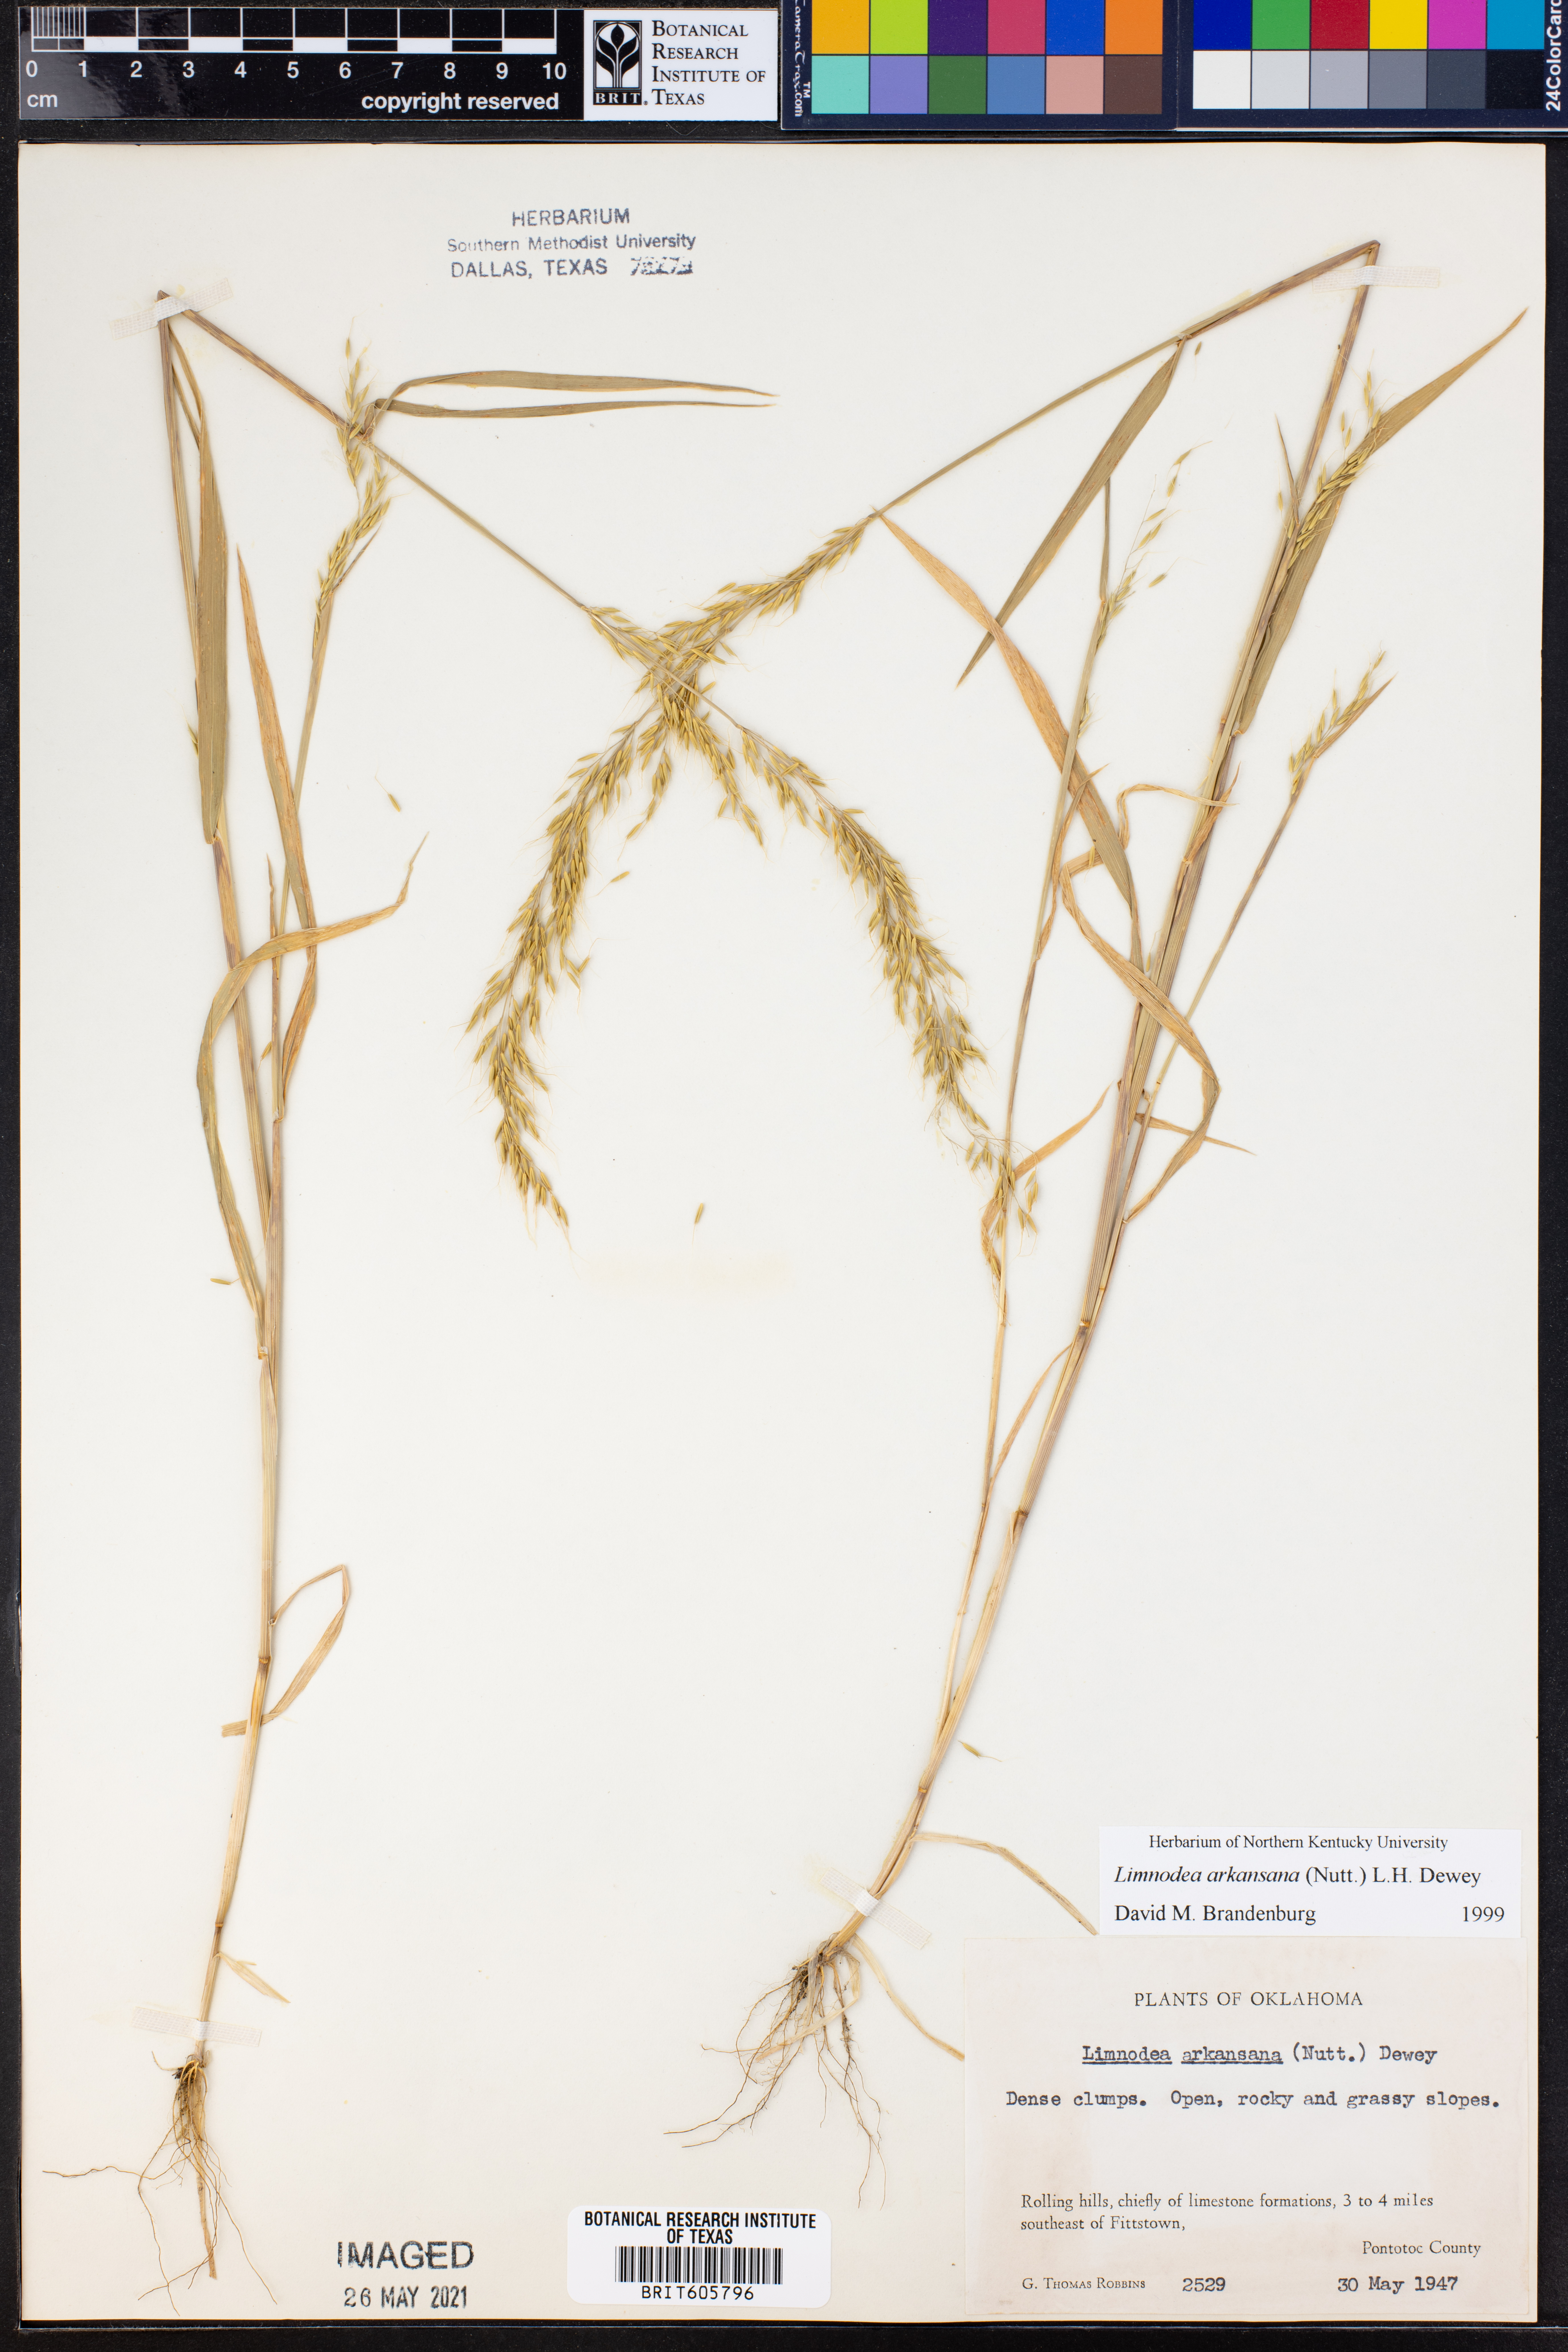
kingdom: Plantae
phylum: Tracheophyta
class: Liliopsida
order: Poales
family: Poaceae
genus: Limnodea
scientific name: Limnodea arkansana
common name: Ozark-grass
